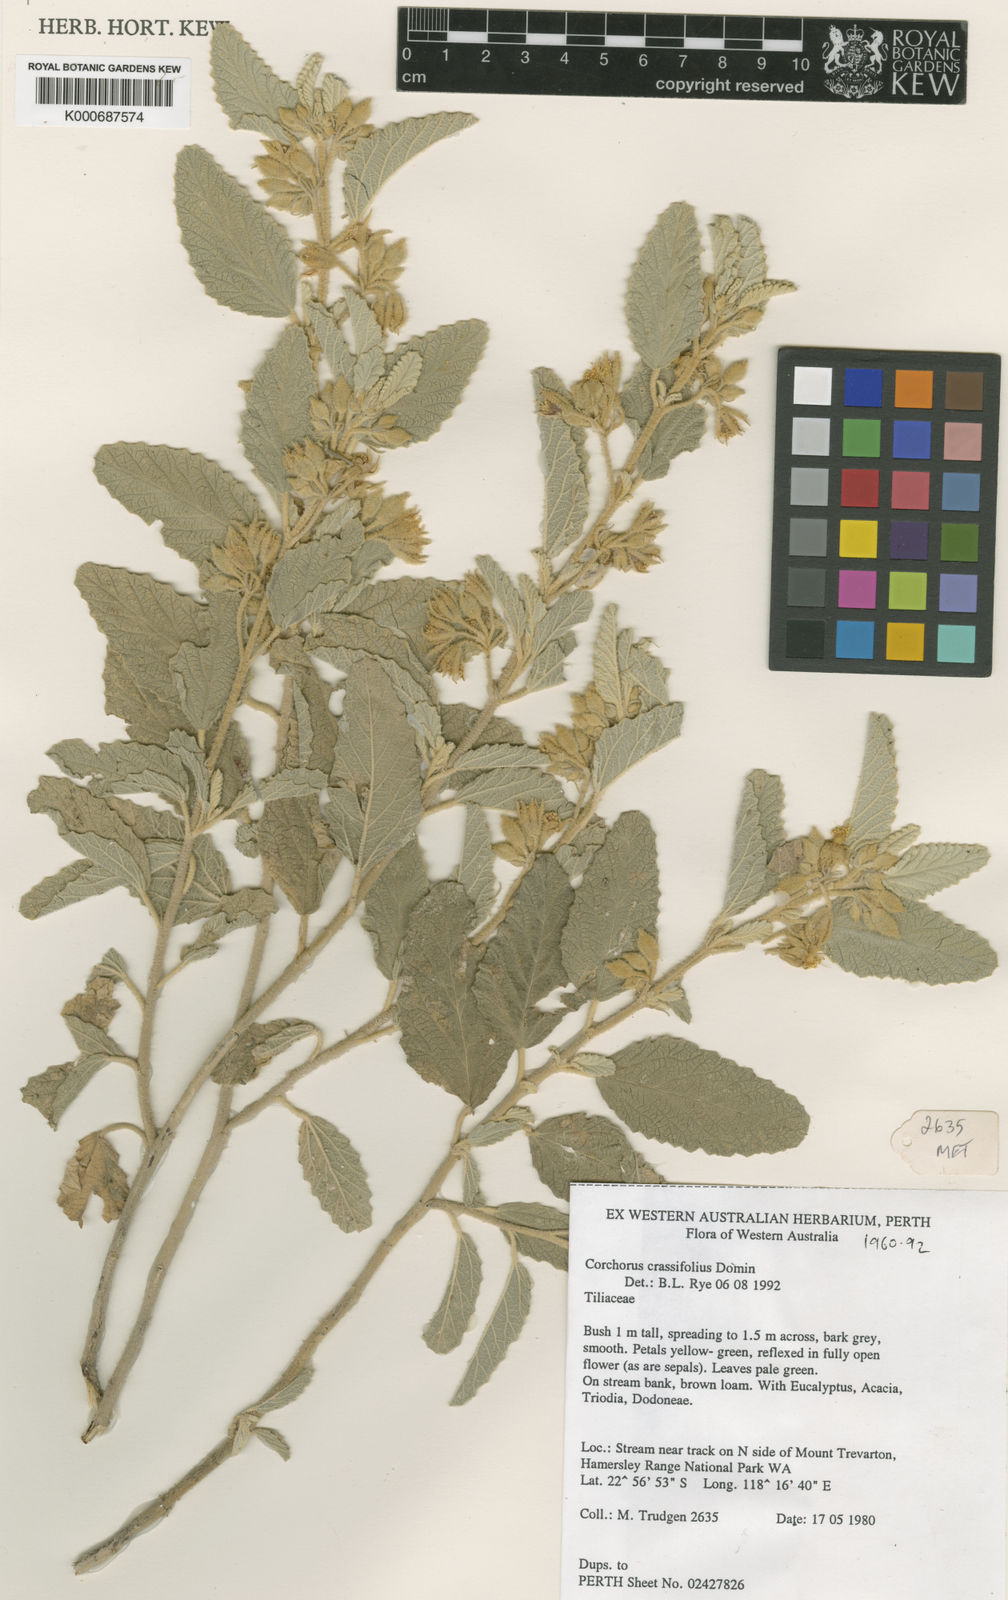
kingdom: Plantae
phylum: Tracheophyta
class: Magnoliopsida
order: Malvales
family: Malvaceae
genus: Corchorus
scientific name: Corchorus chrozophorifolius
